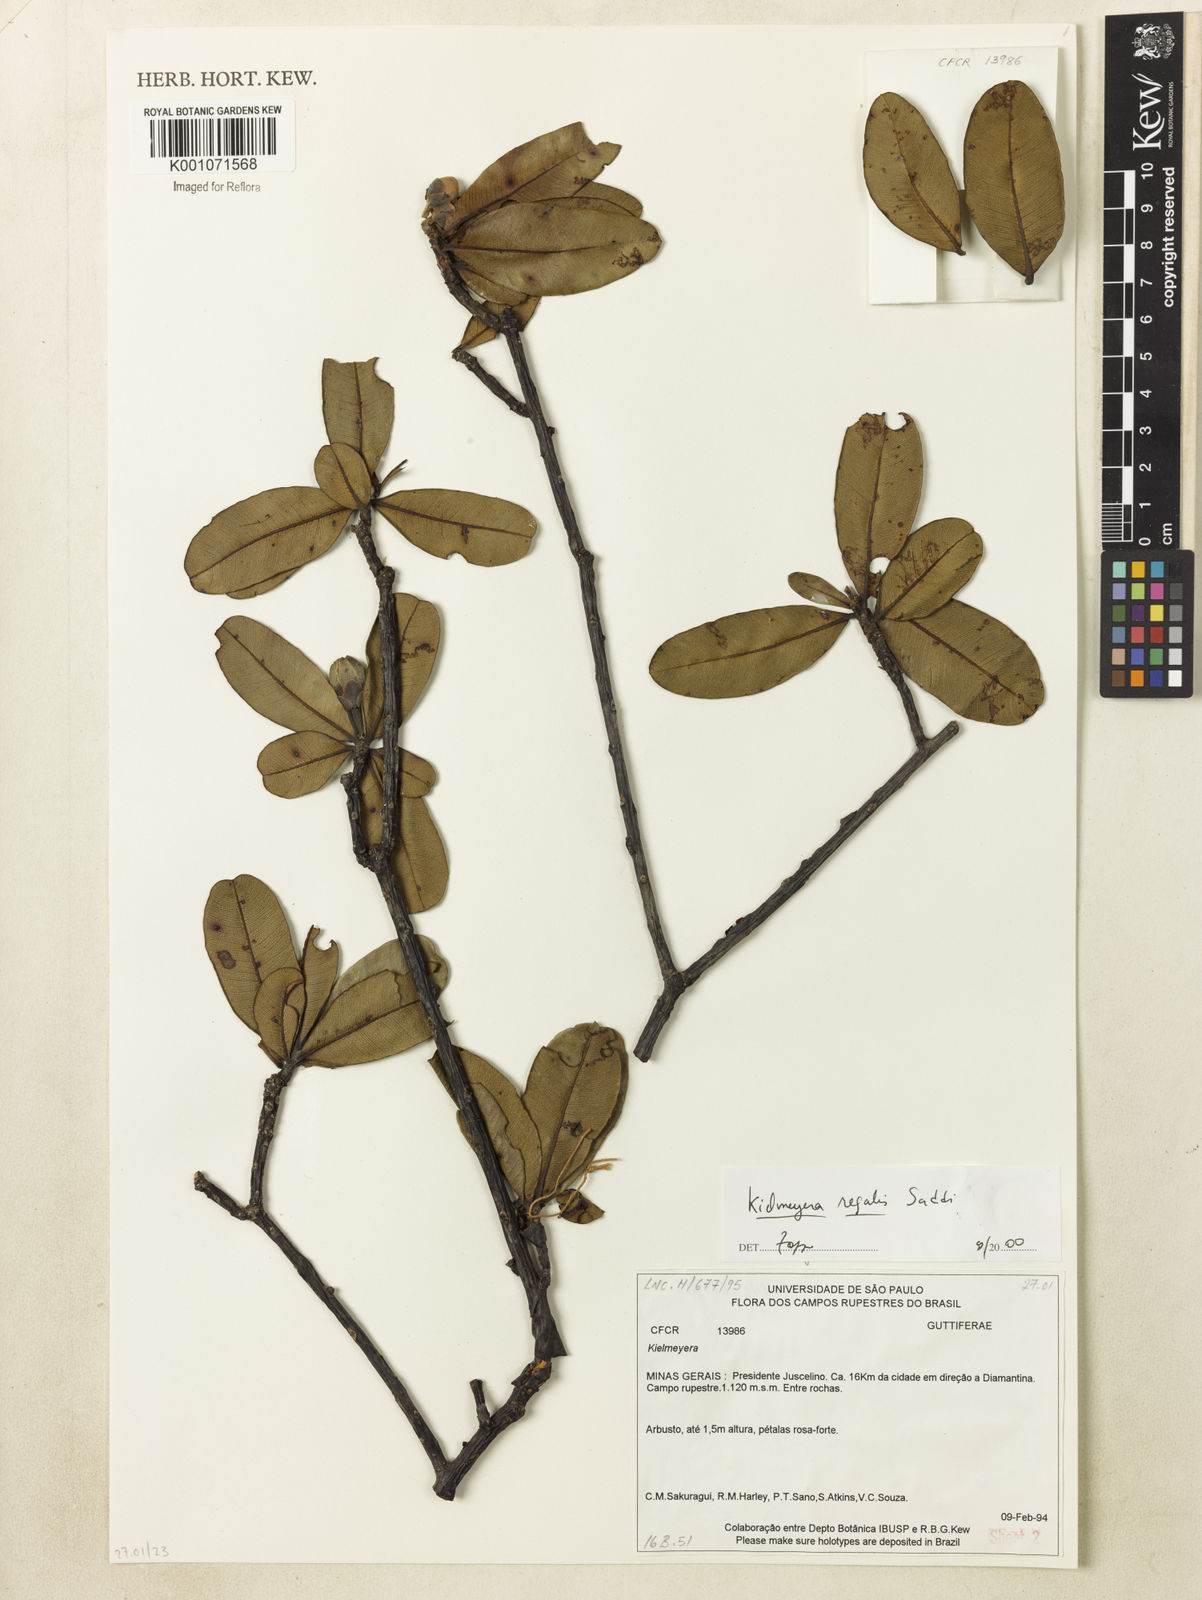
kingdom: Plantae
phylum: Tracheophyta
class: Magnoliopsida
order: Malpighiales
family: Calophyllaceae
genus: Kielmeyera
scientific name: Kielmeyera regalis
